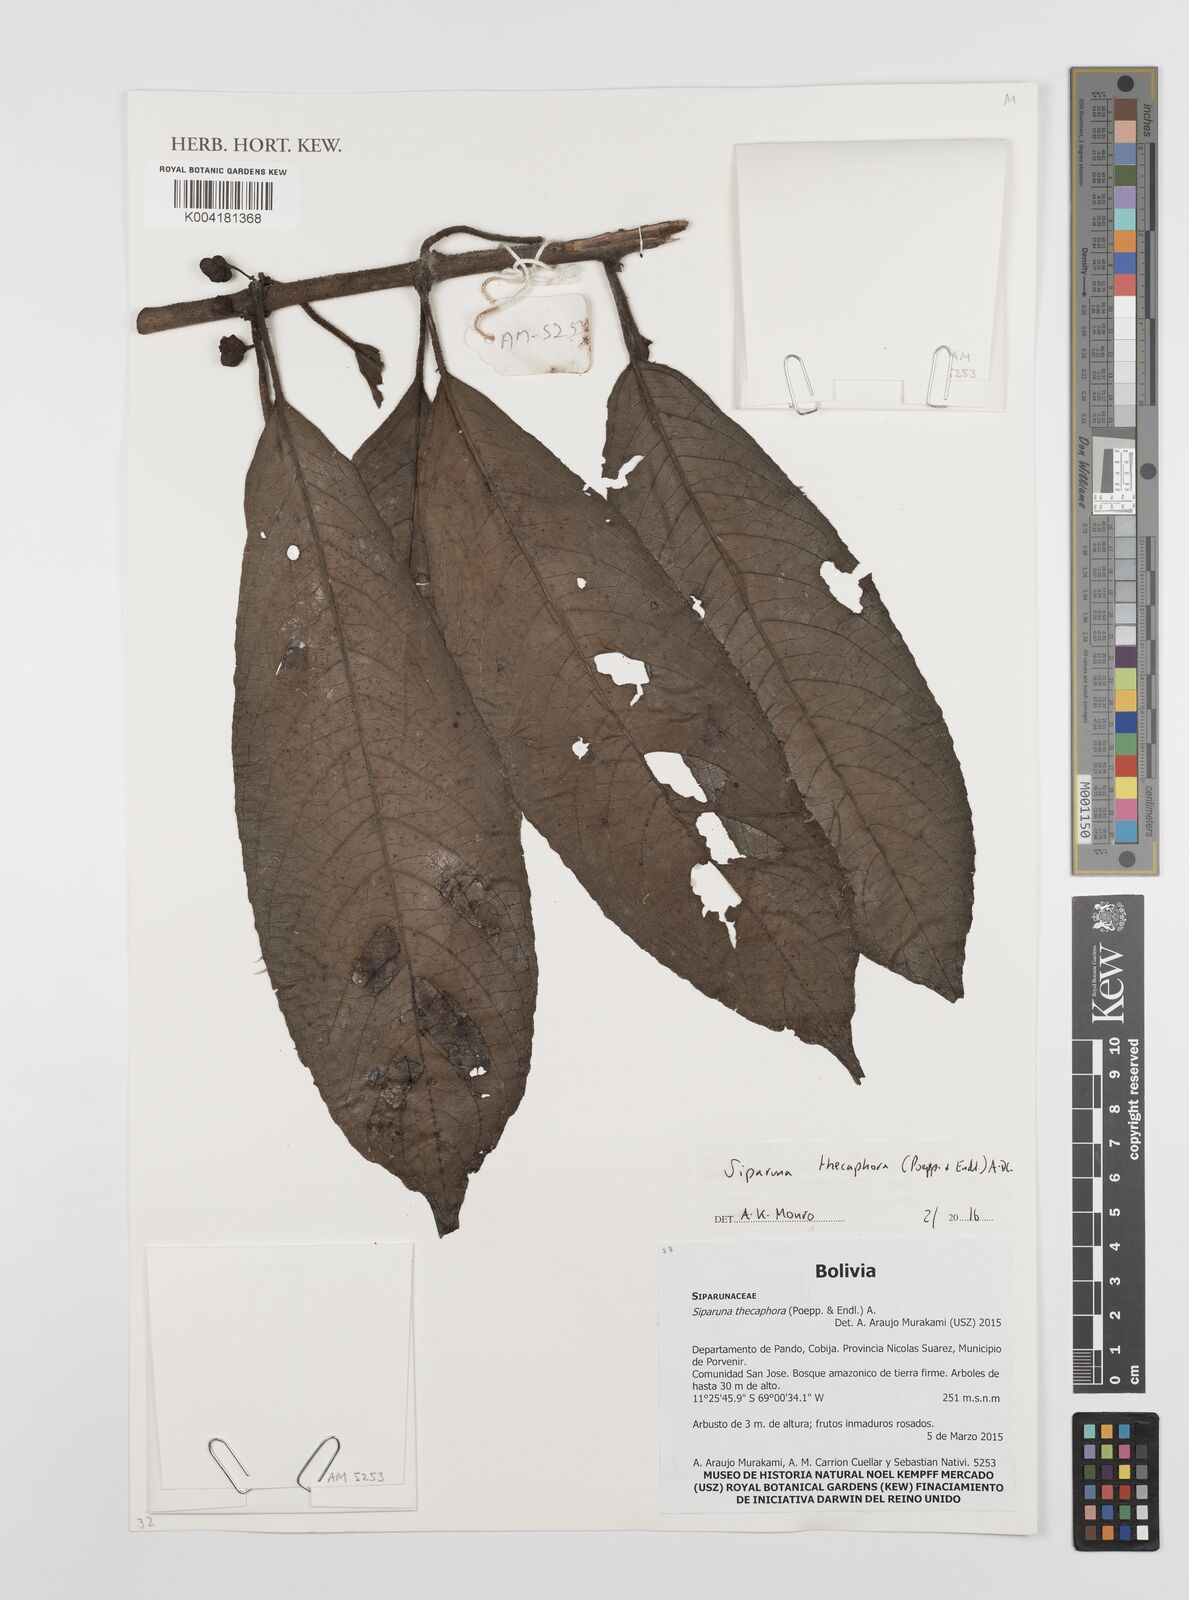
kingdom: Plantae
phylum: Tracheophyta
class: Magnoliopsida
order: Laurales
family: Siparunaceae
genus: Siparuna
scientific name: Siparuna thecaphora
